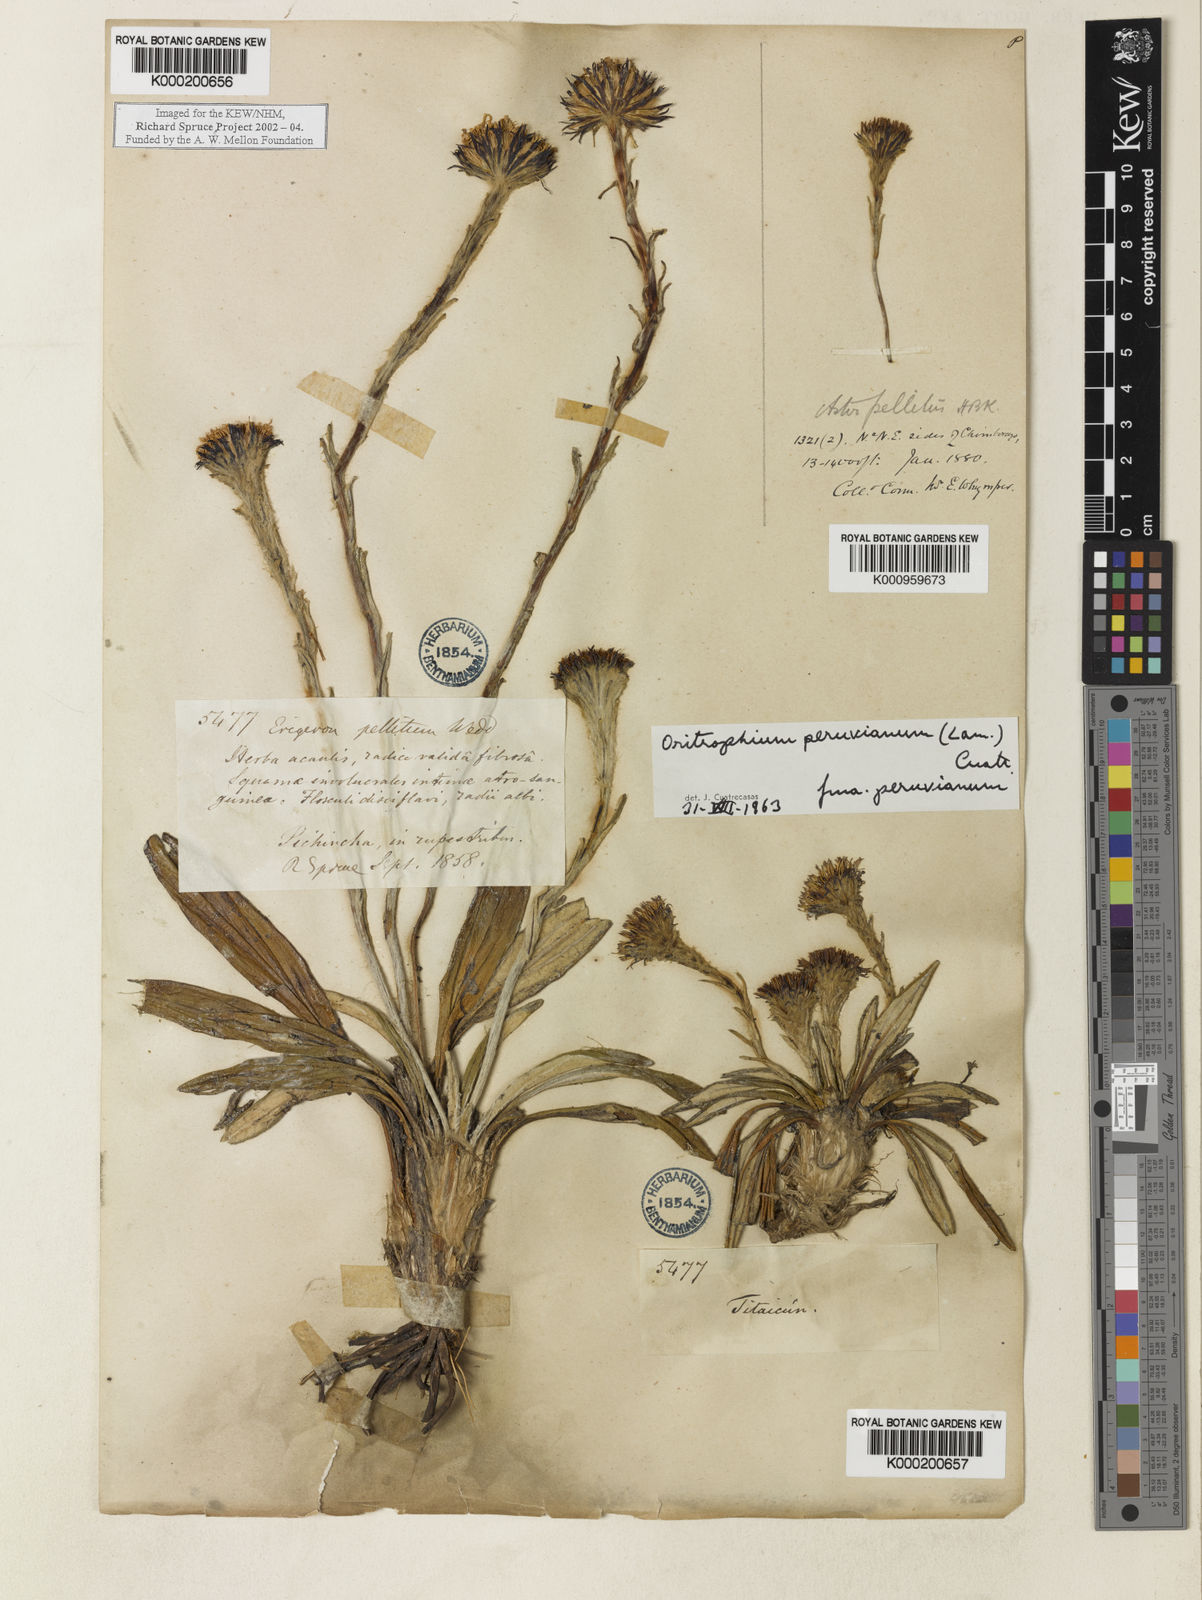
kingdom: Plantae
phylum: Tracheophyta
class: Magnoliopsida
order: Asterales
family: Asteraceae
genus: Oritrophium
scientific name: Oritrophium peruvianum
